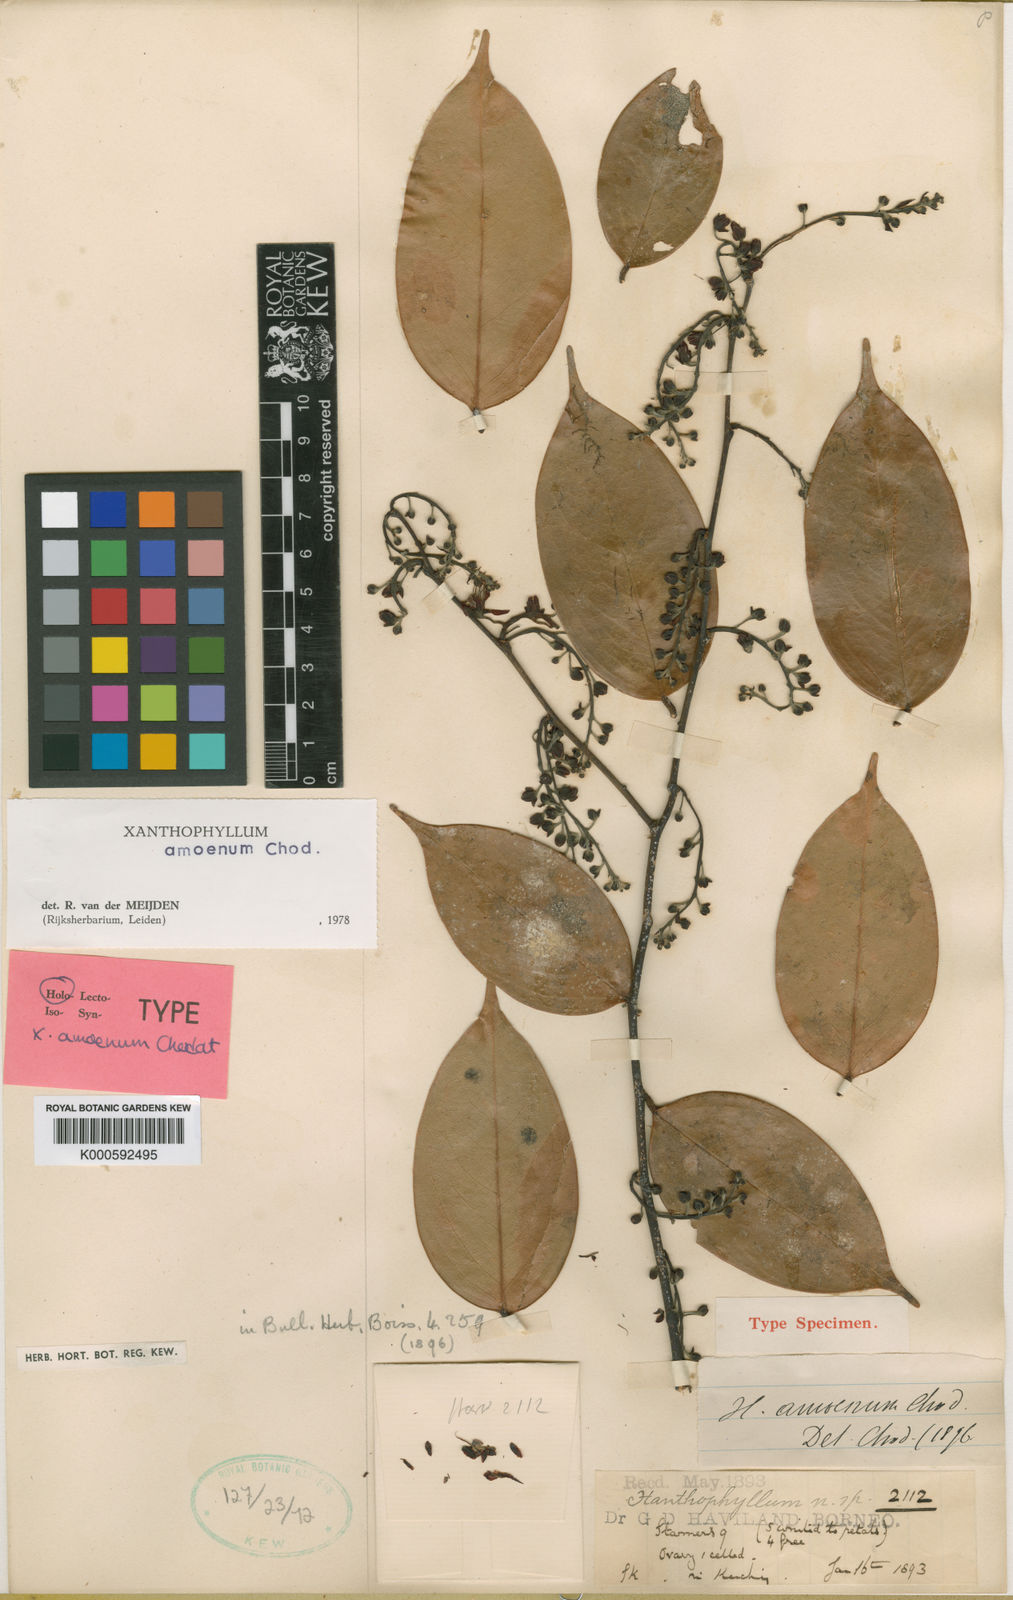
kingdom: Plantae
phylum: Tracheophyta
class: Magnoliopsida
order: Fabales
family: Polygalaceae
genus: Xanthophyllum
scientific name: Xanthophyllum stipitatum
